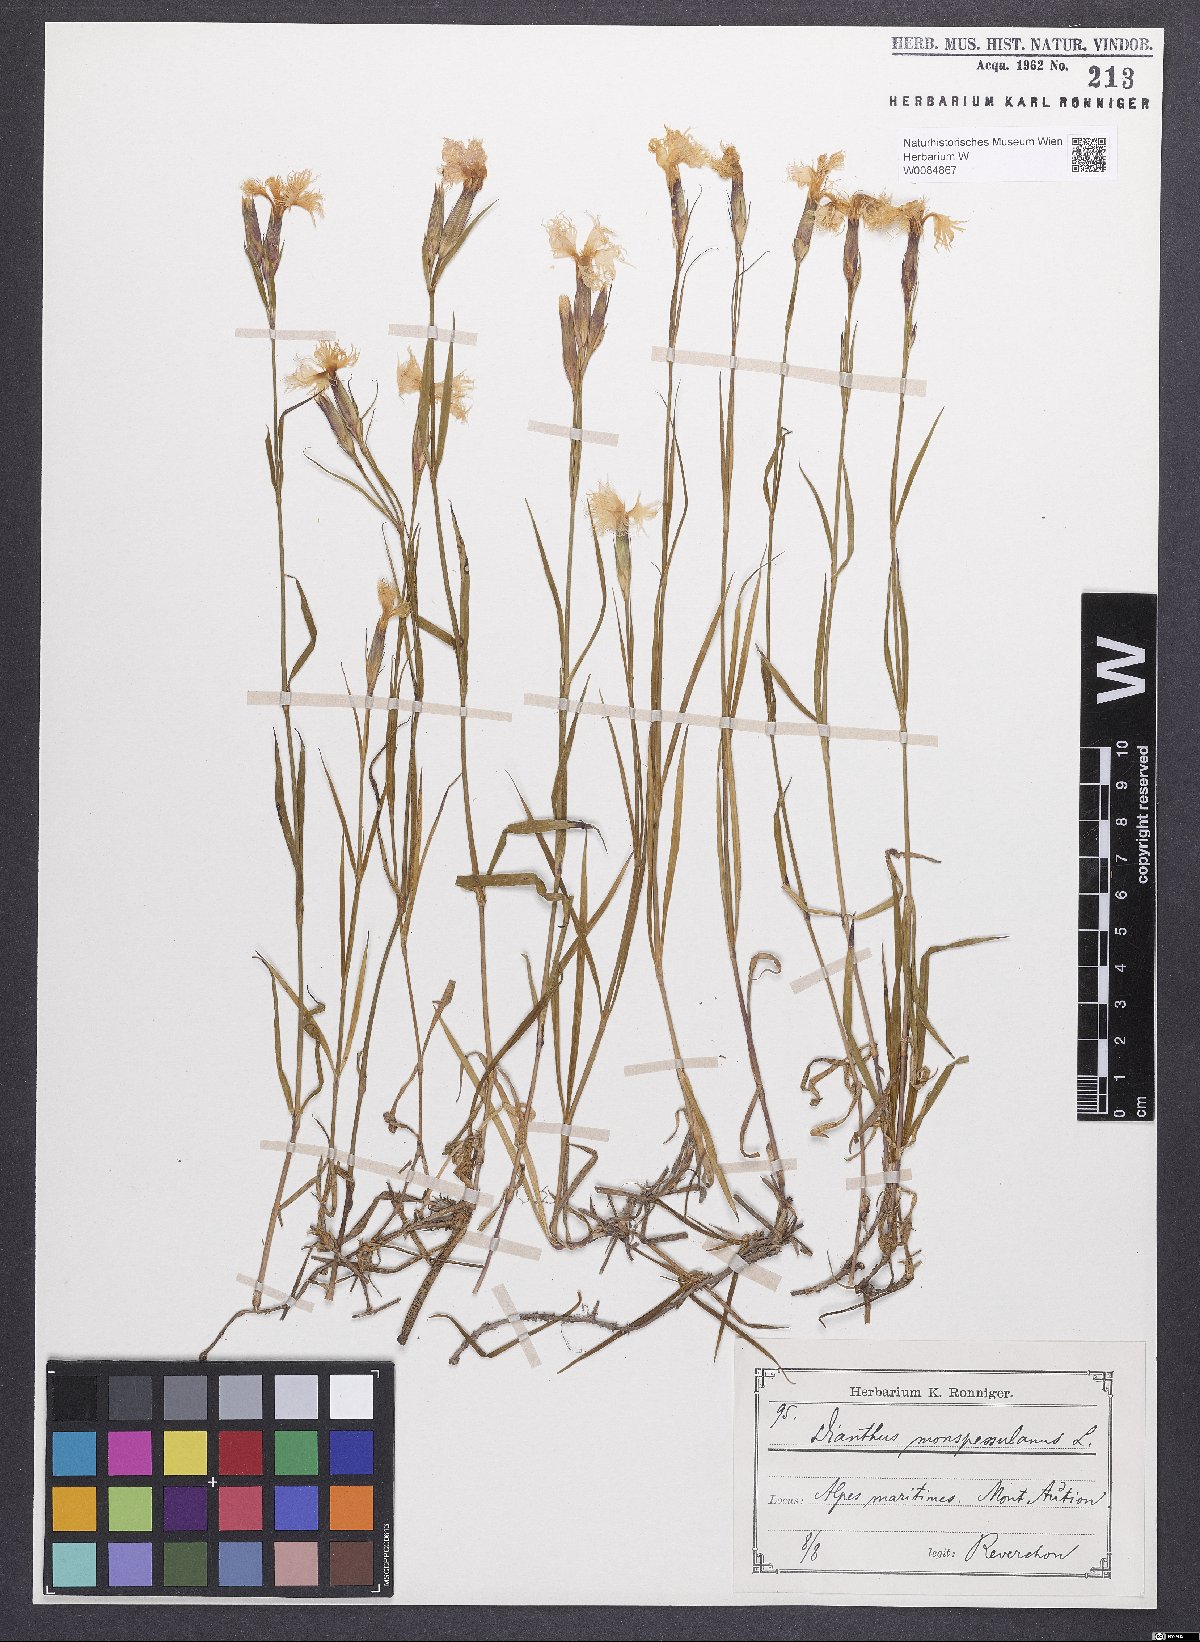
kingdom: Plantae
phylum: Tracheophyta
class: Magnoliopsida
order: Caryophyllales
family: Caryophyllaceae
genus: Dianthus
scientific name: Dianthus hyssopifolius
